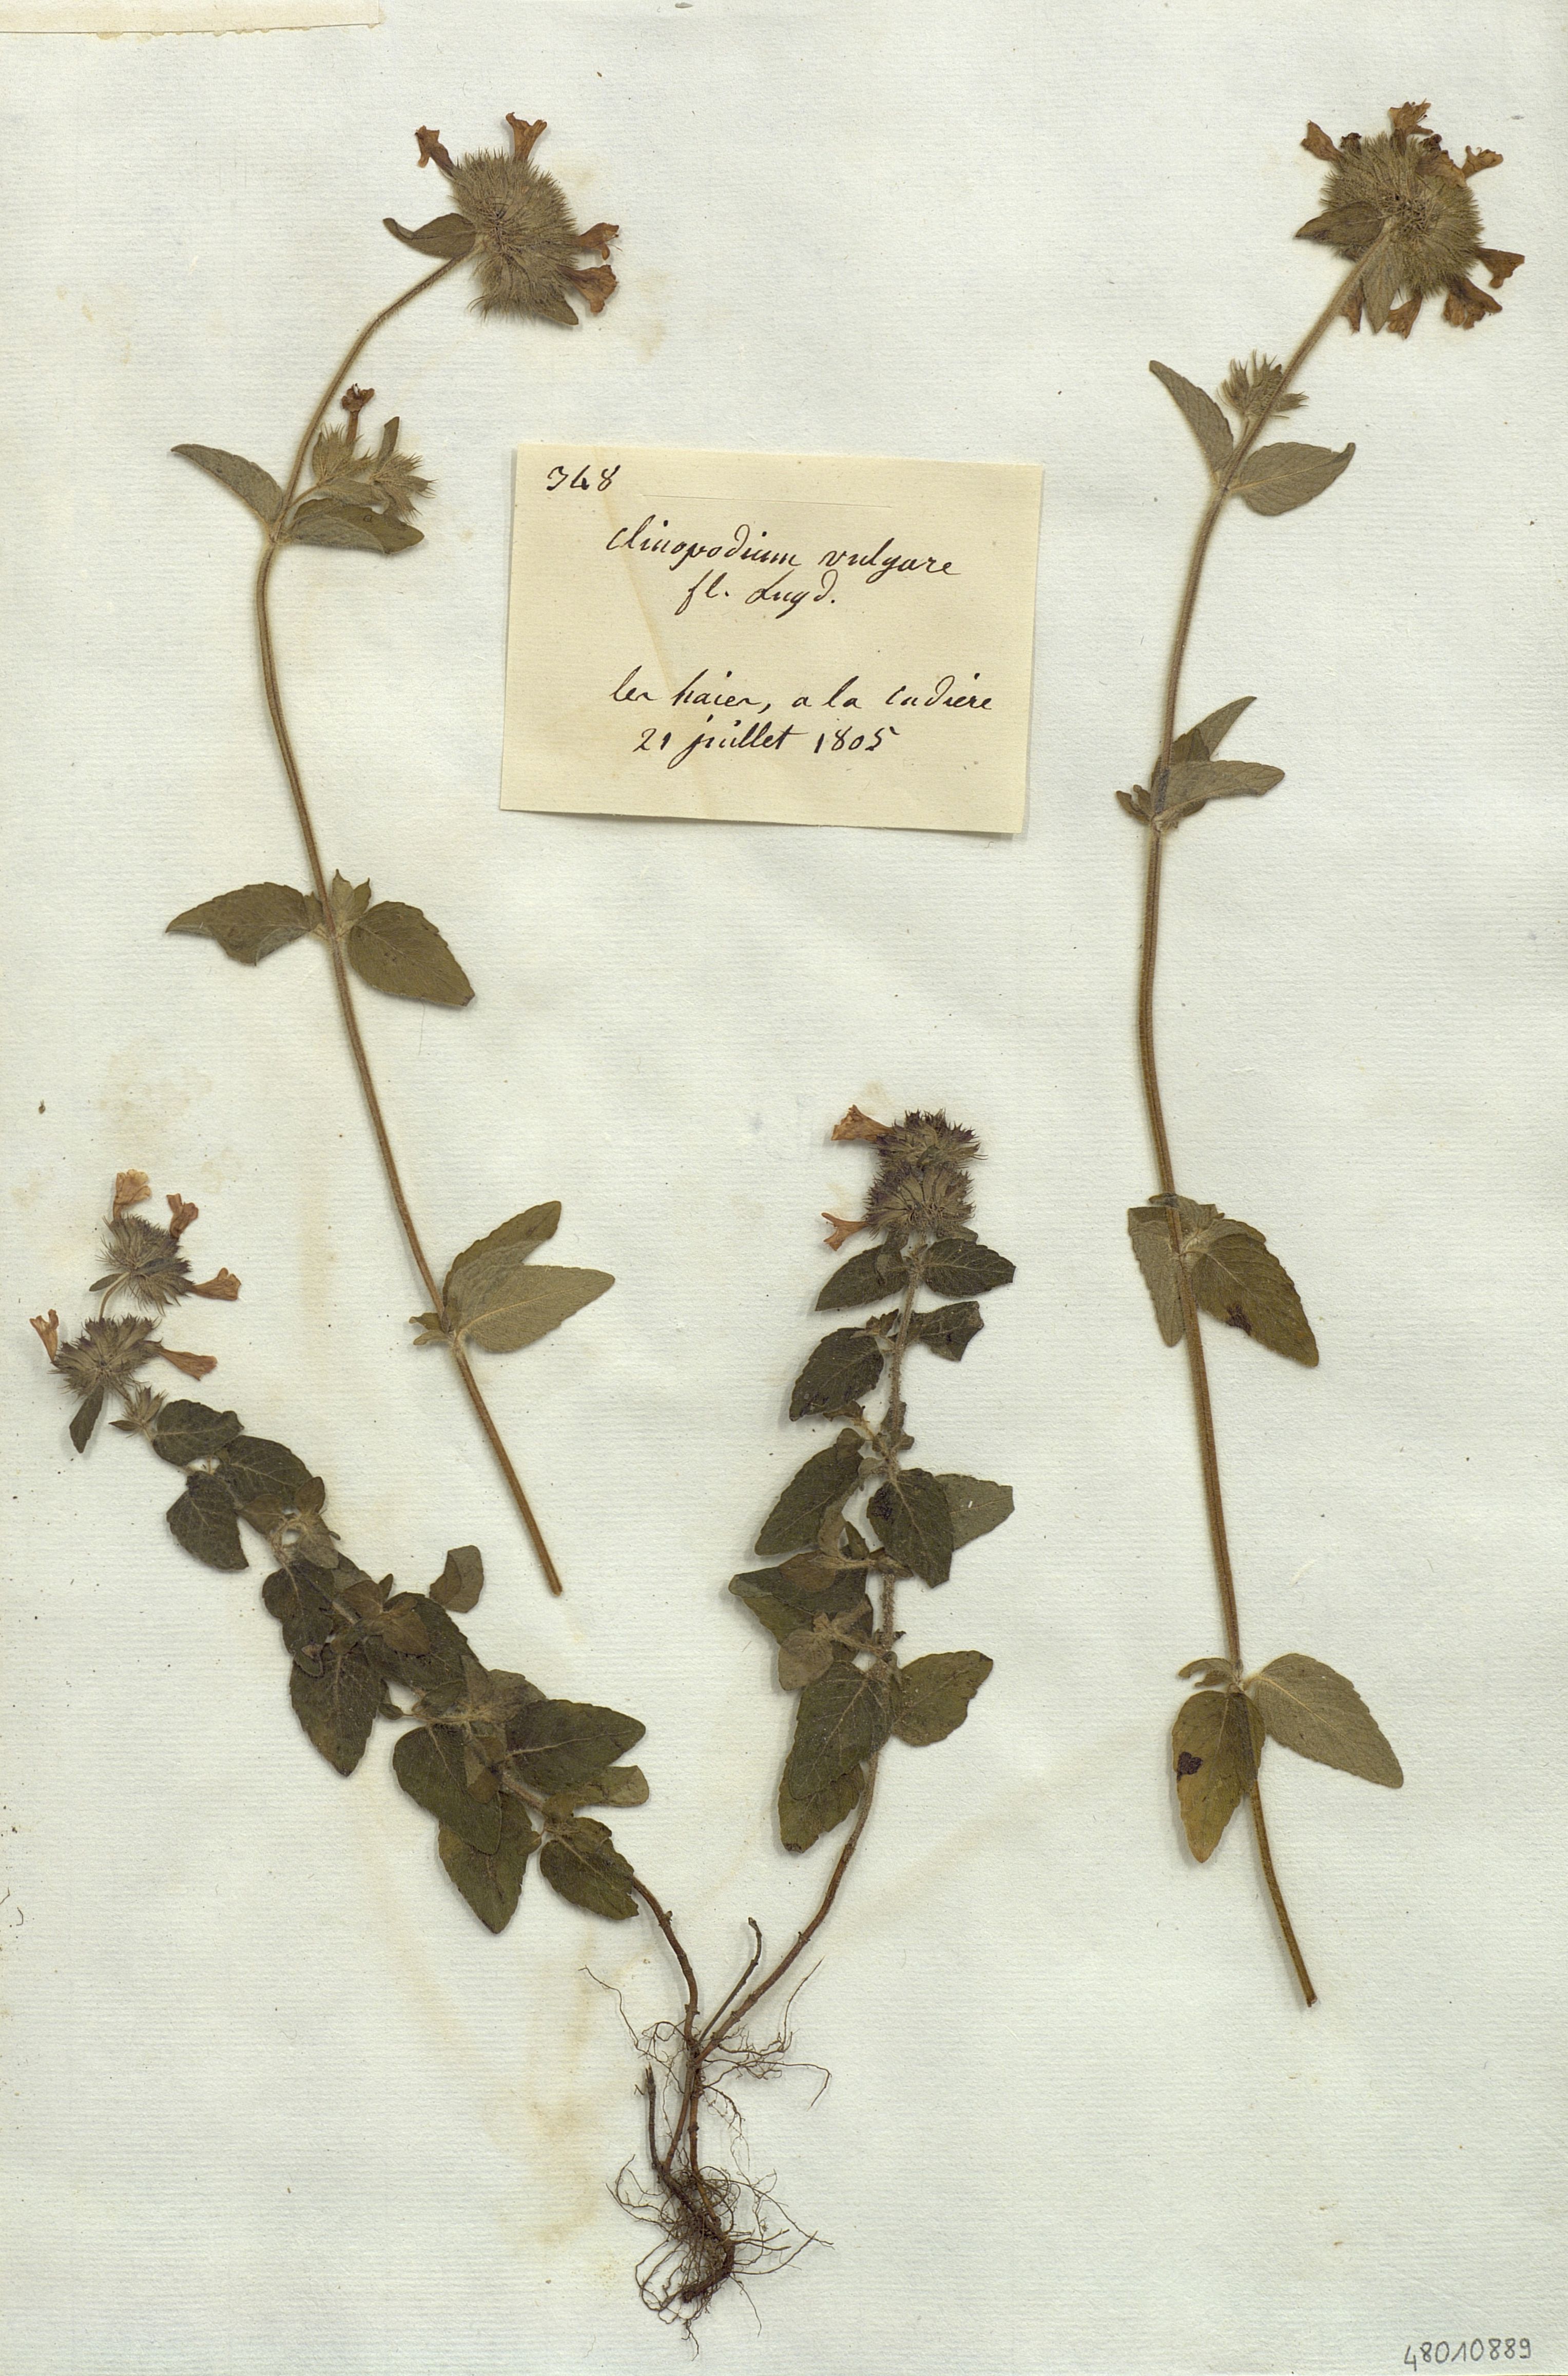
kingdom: Plantae
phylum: Tracheophyta
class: Magnoliopsida
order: Lamiales
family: Lamiaceae
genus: Clinopodium
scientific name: Clinopodium vulgare
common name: Wild basil
